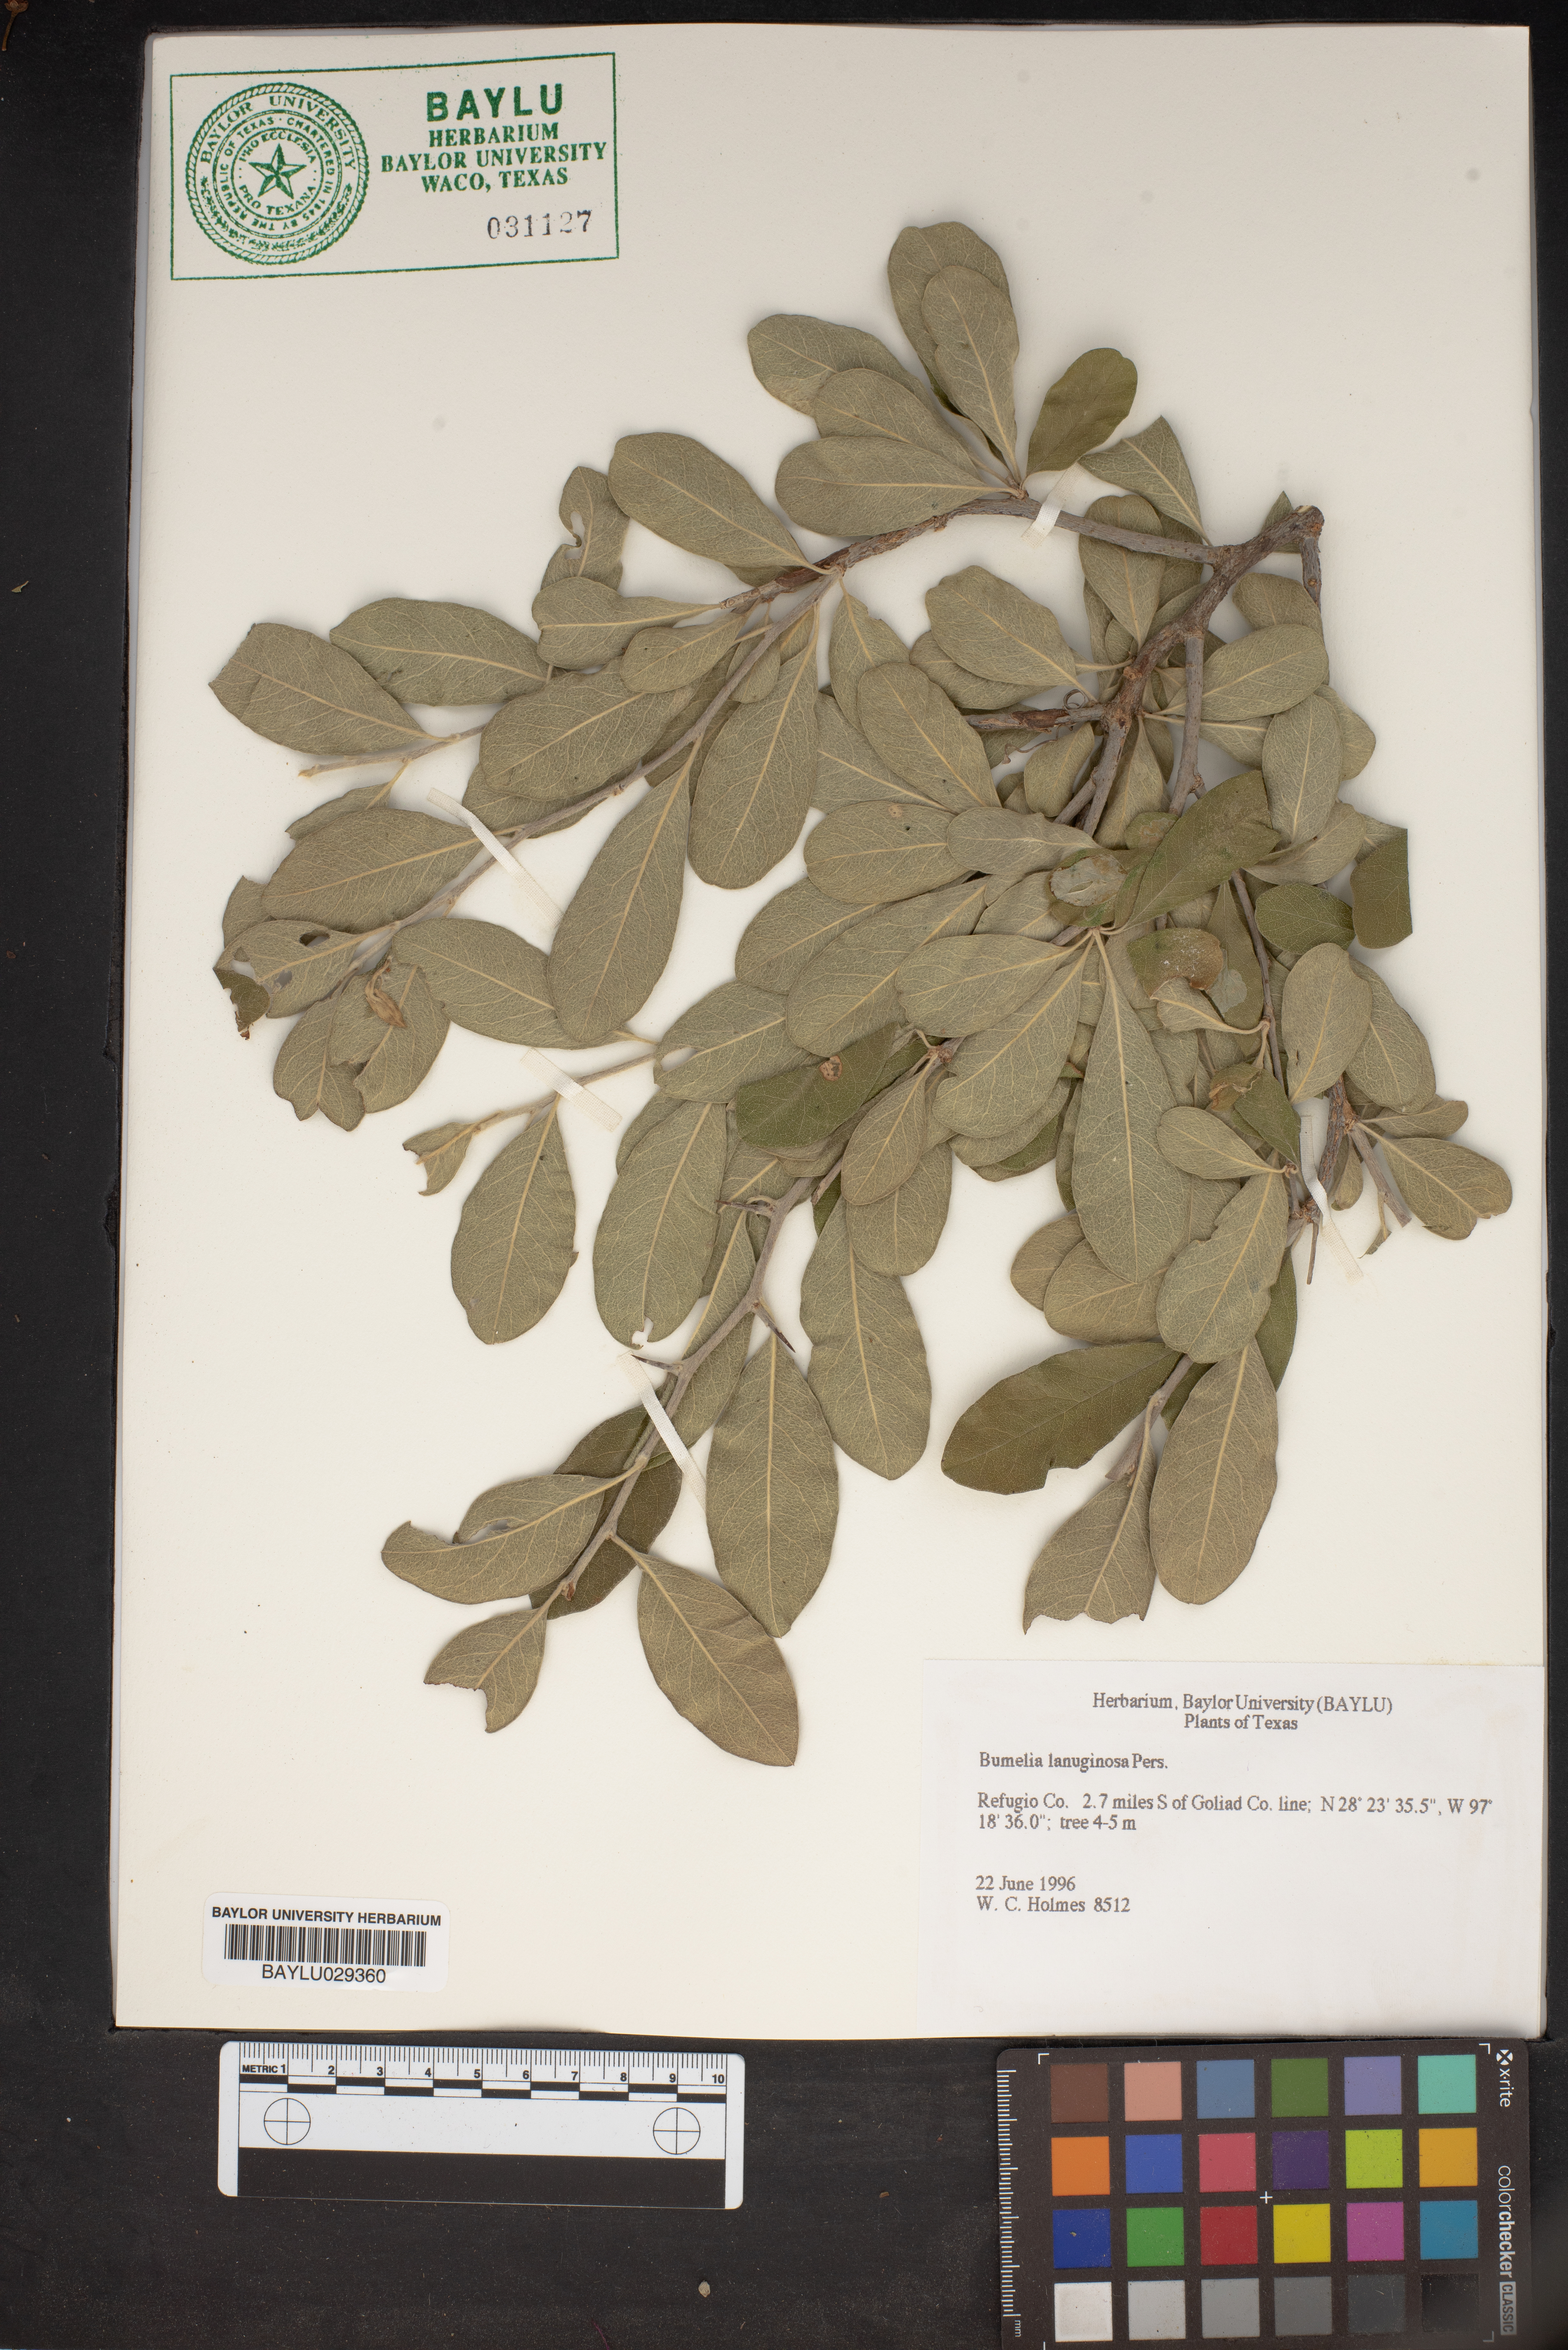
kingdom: Plantae
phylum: Tracheophyta
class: Magnoliopsida
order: Ericales
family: Sapotaceae
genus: Sideroxylon
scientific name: Sideroxylon lanuginosum
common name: Chittamwood
